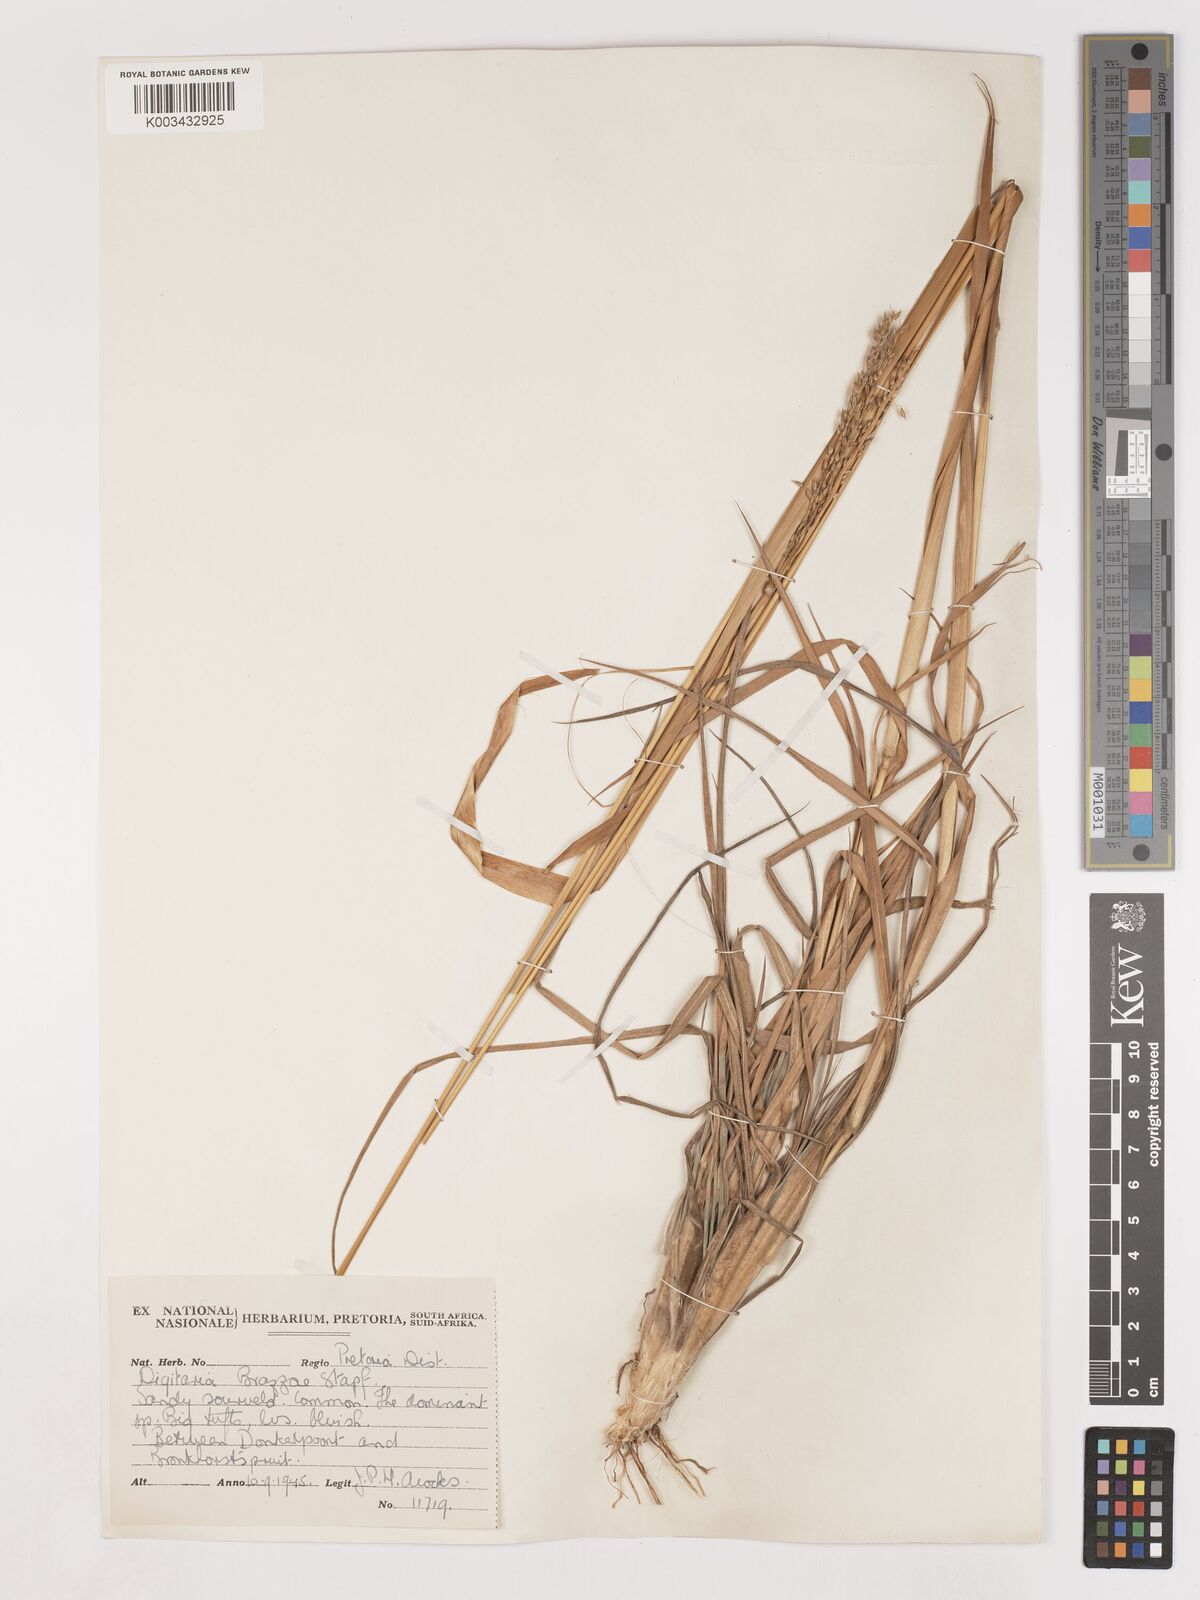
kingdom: Plantae
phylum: Tracheophyta
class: Liliopsida
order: Poales
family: Poaceae
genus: Digitaria
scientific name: Digitaria brazzae
